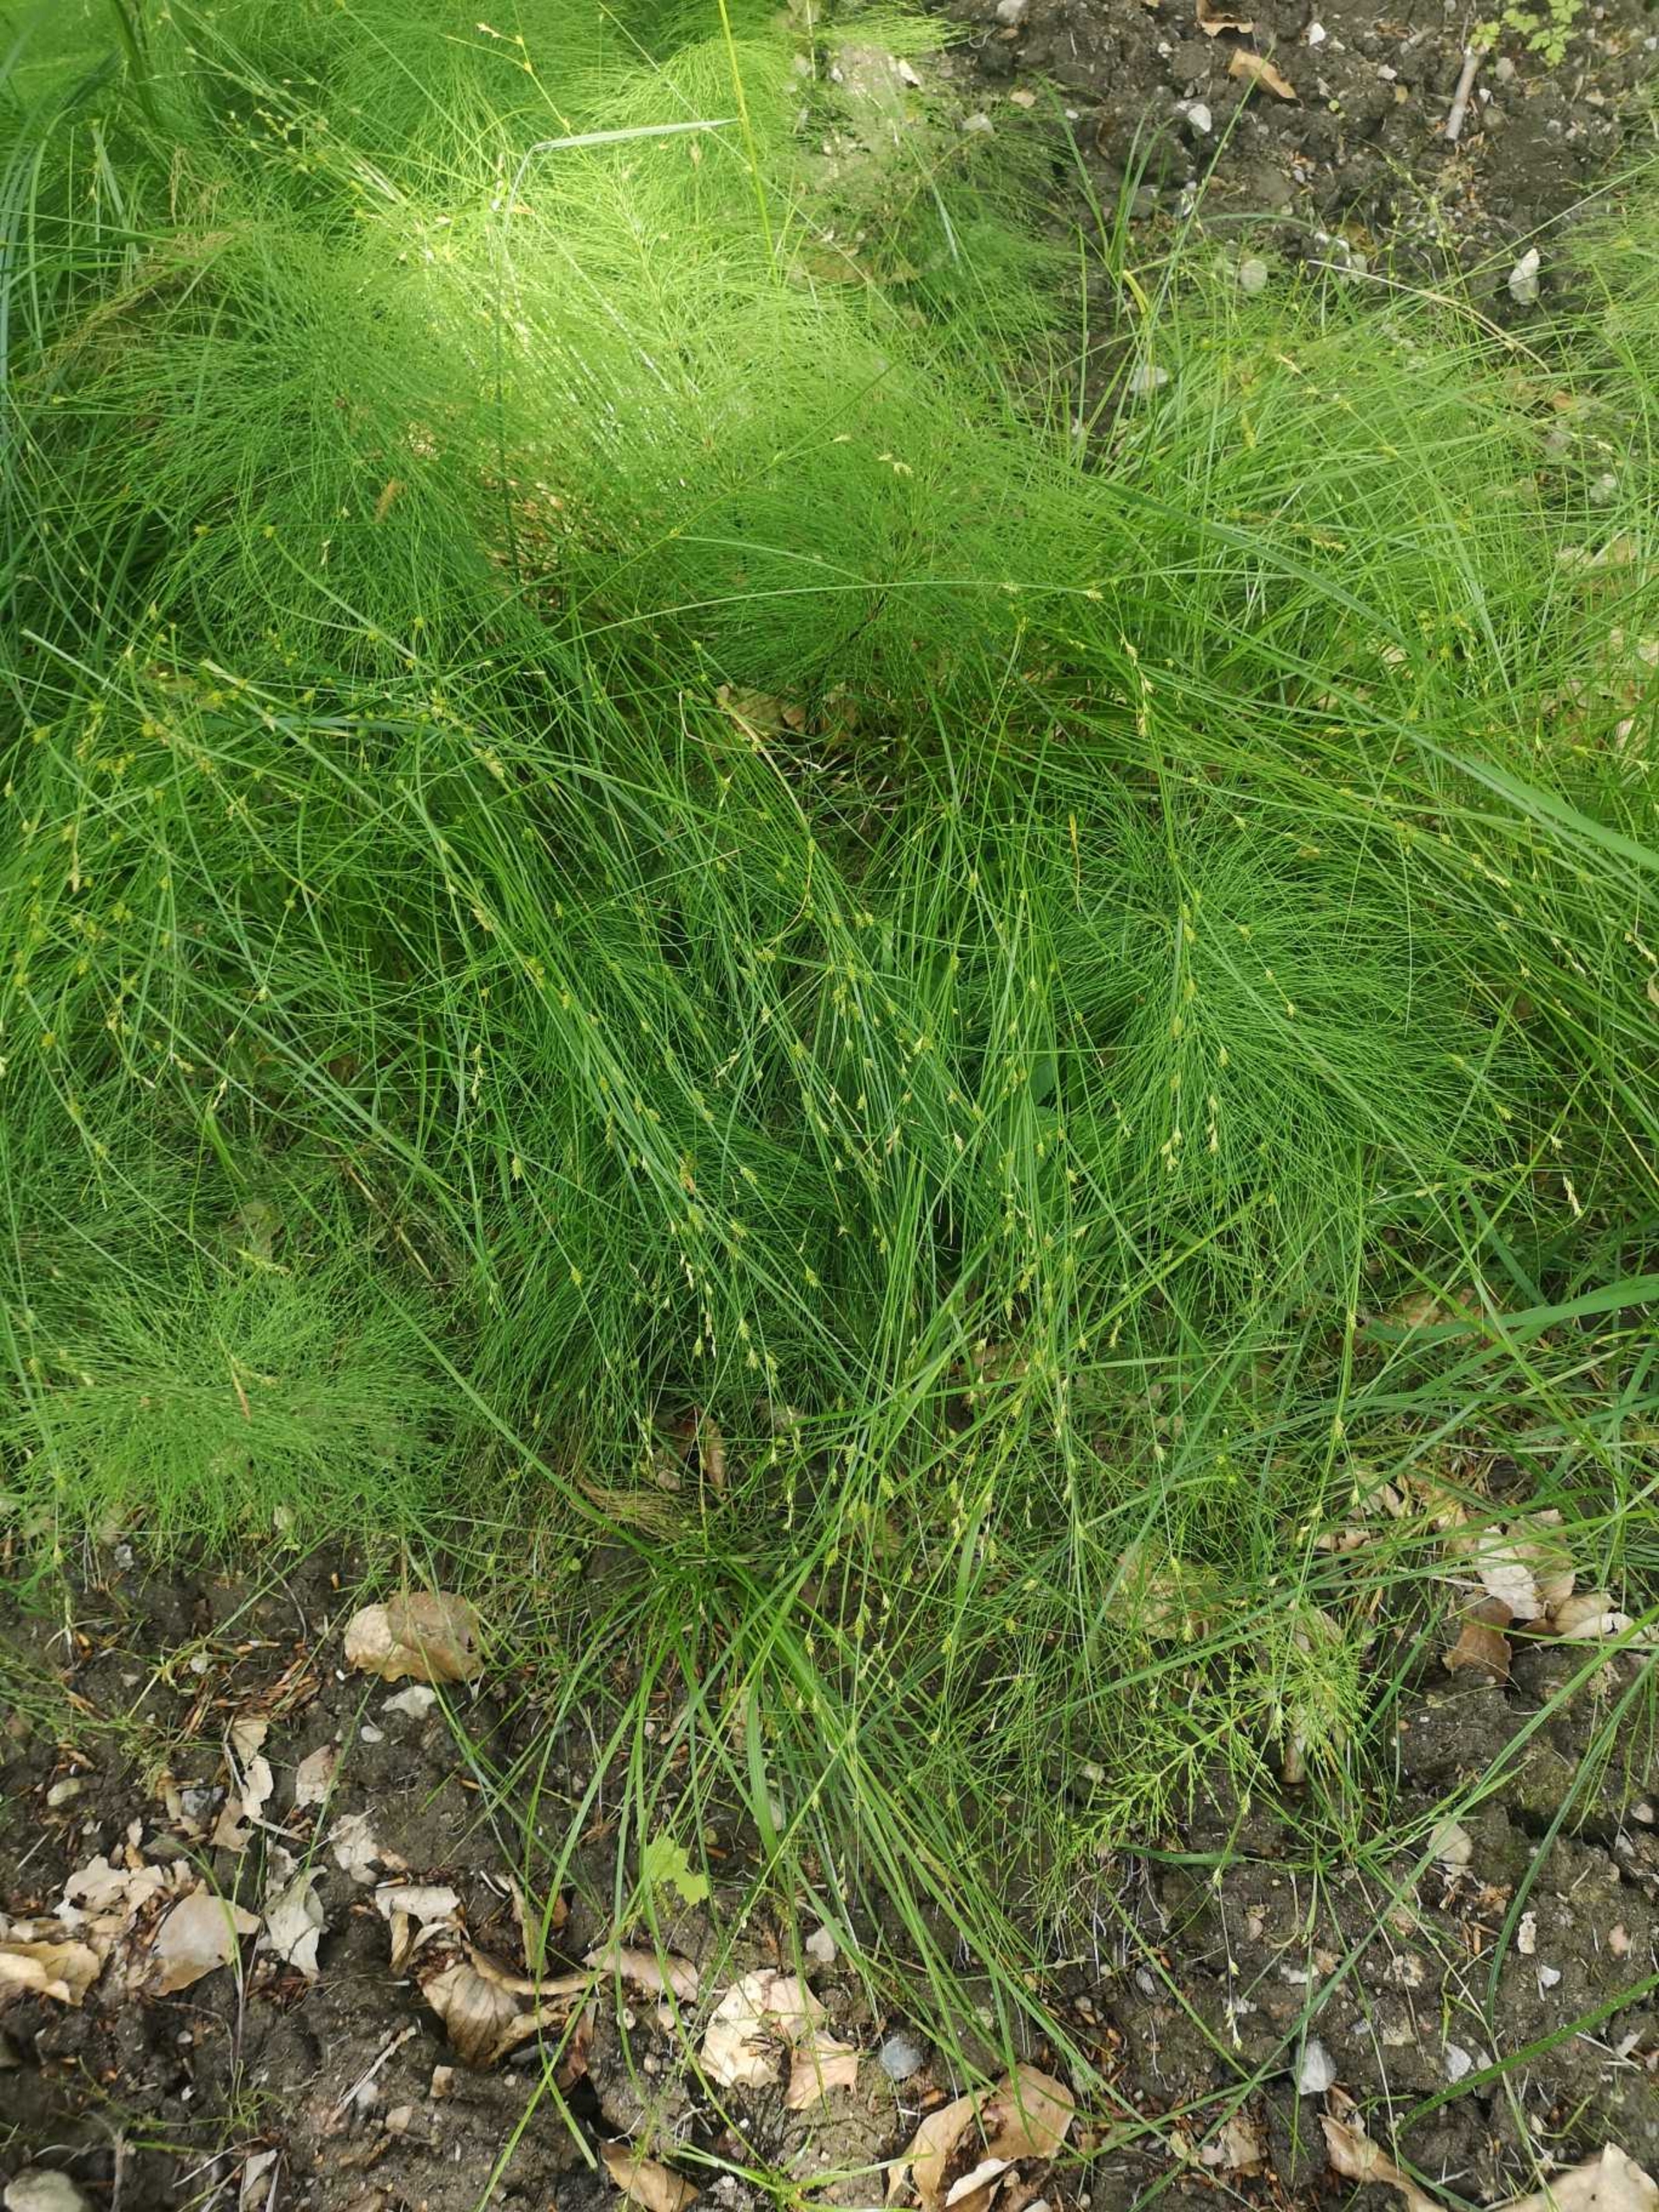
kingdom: Plantae
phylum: Tracheophyta
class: Liliopsida
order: Poales
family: Cyperaceae
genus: Carex
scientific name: Carex remota
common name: Akselblomstret star
